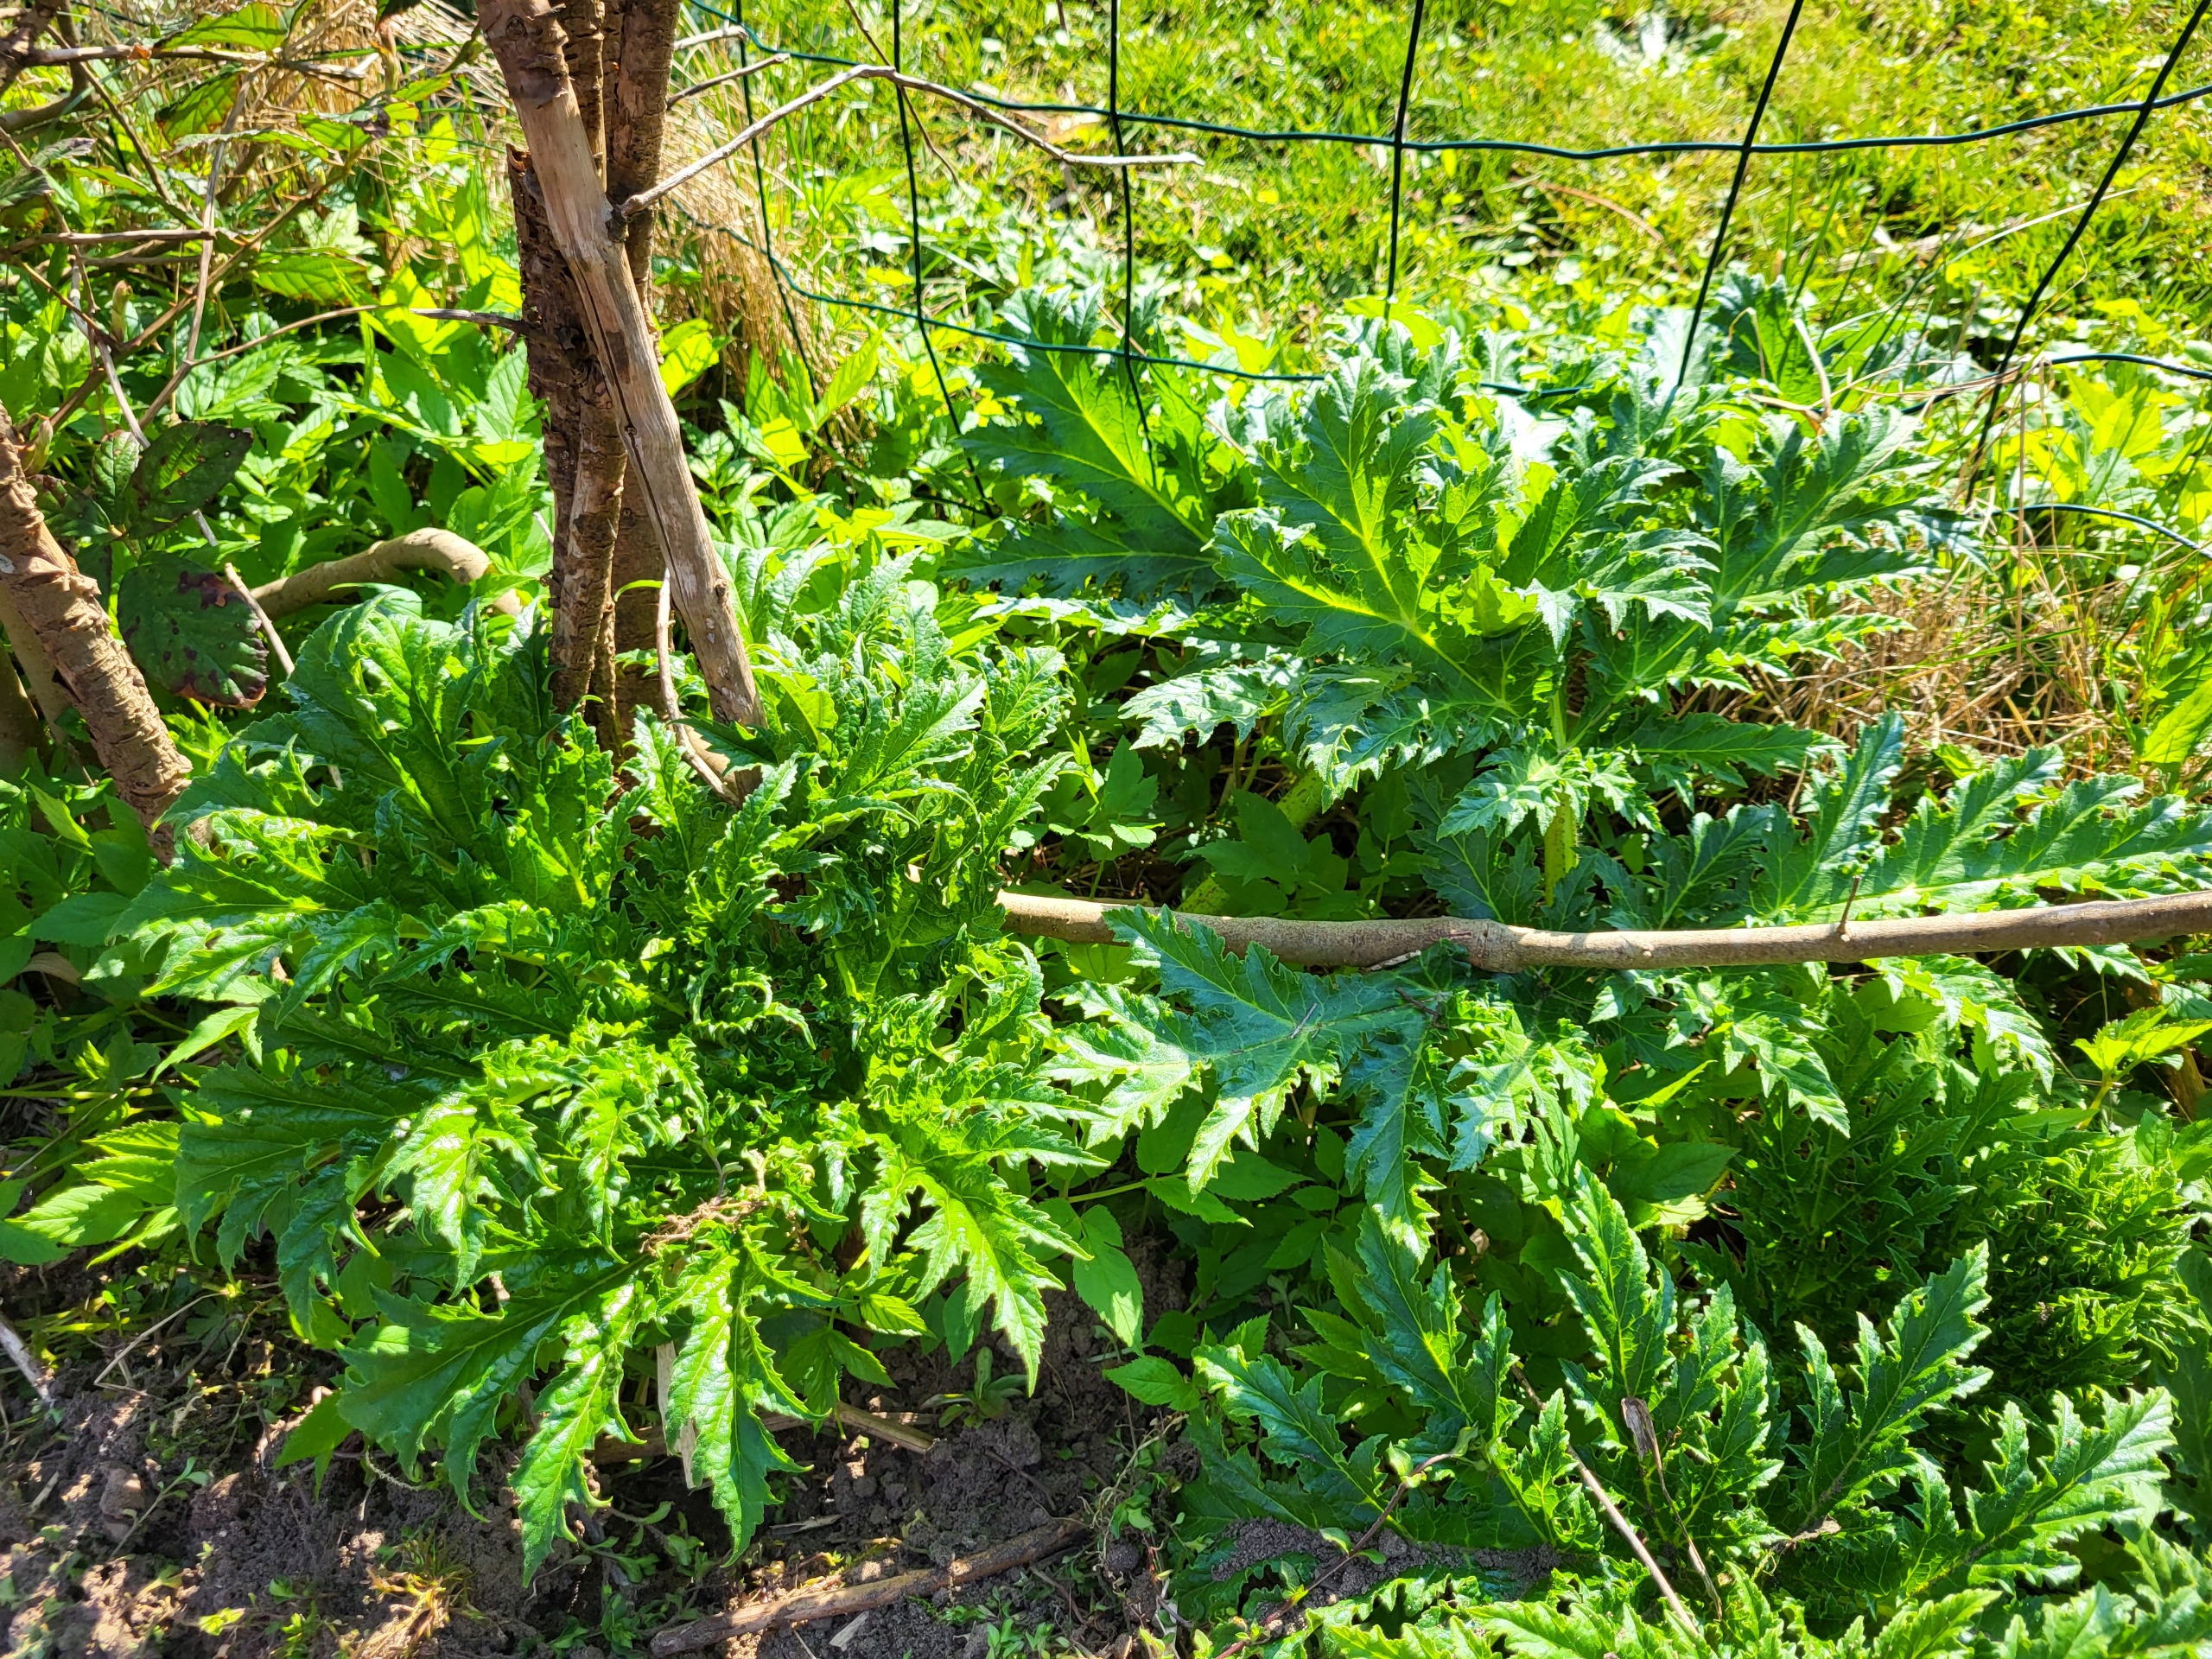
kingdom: Plantae
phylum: Tracheophyta
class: Magnoliopsida
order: Apiales
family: Apiaceae
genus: Heracleum
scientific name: Heracleum mantegazzianum
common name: Kæmpe-bjørneklo
